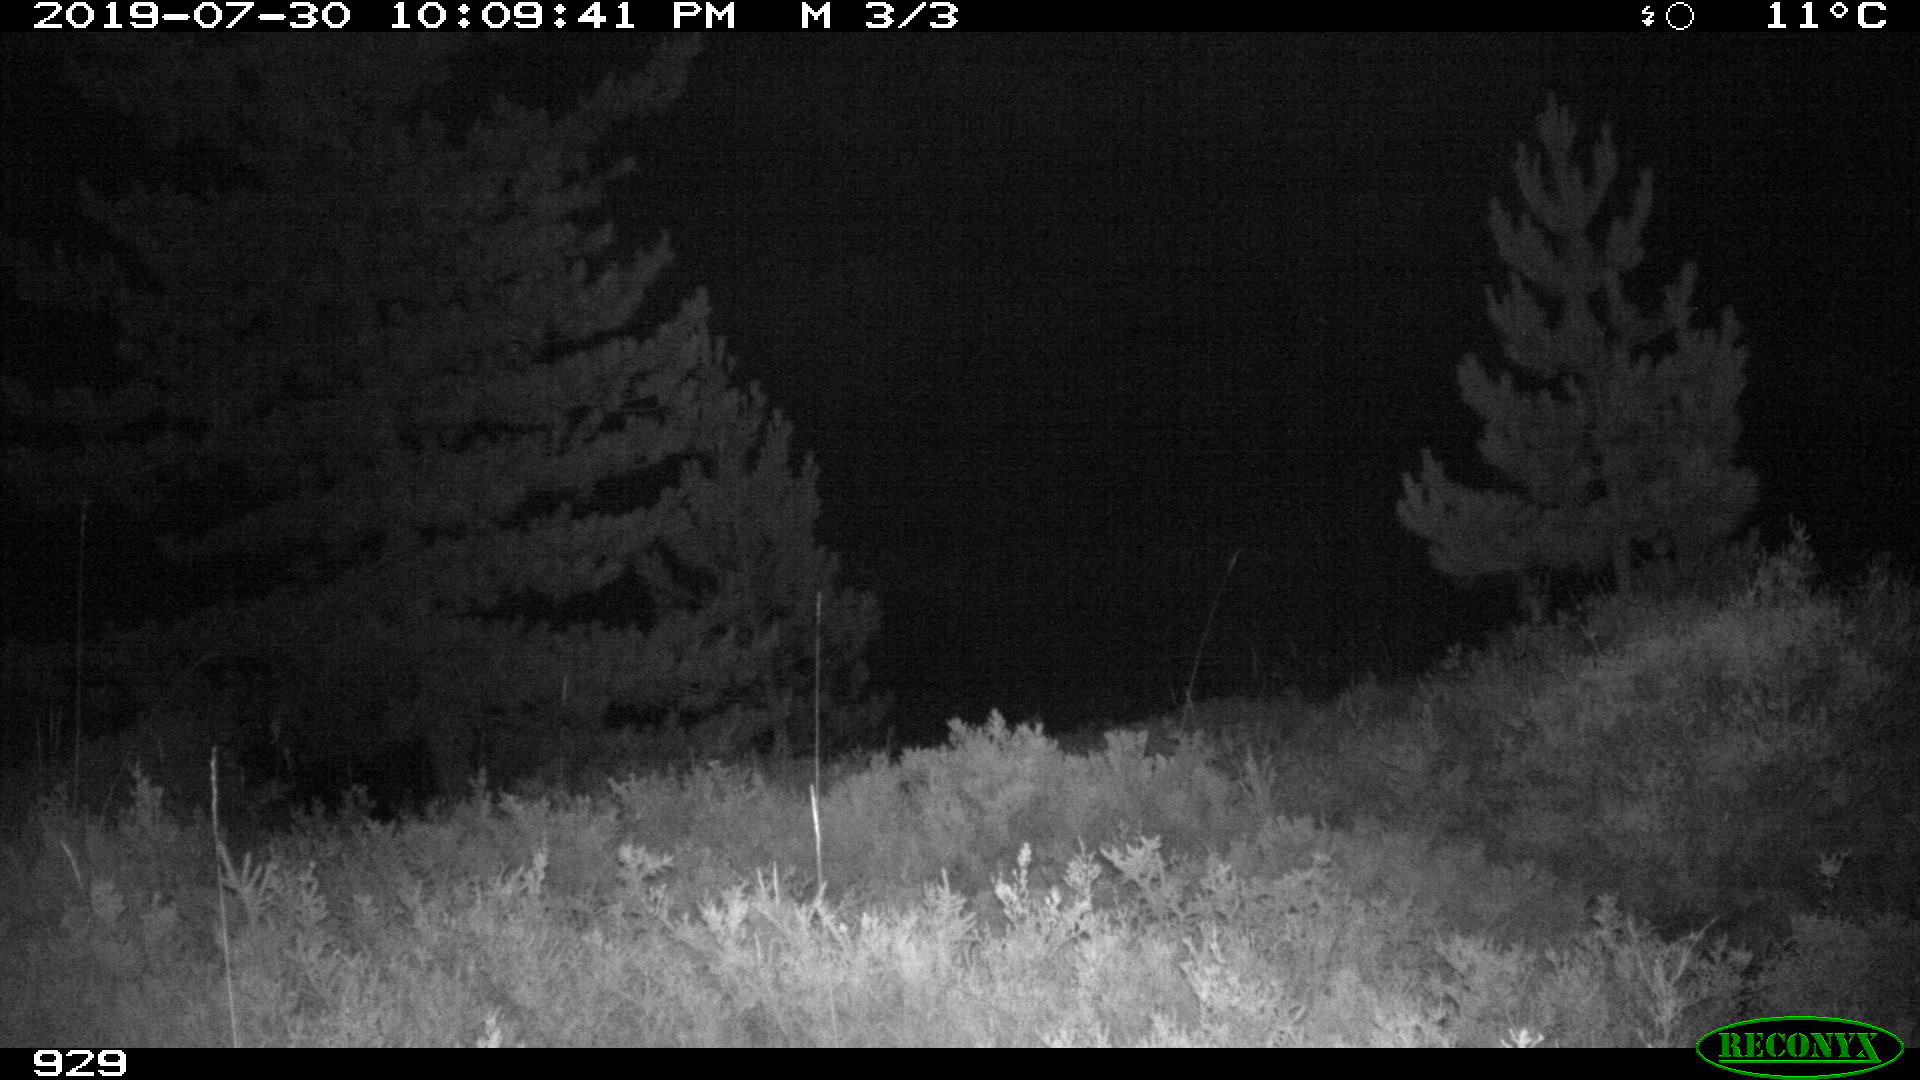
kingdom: Animalia
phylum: Chordata
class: Mammalia
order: Artiodactyla
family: Cervidae
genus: Capreolus
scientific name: Capreolus capreolus
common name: Western roe deer
